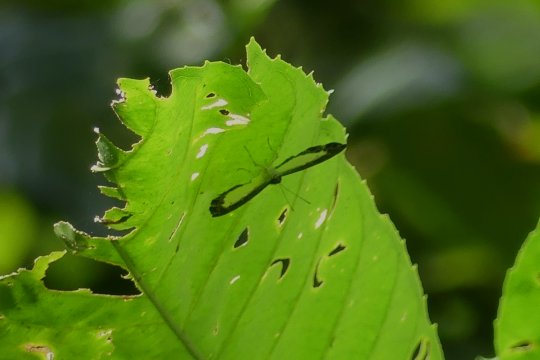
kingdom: Animalia
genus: Nymphidium
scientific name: Nymphidium cachrus
